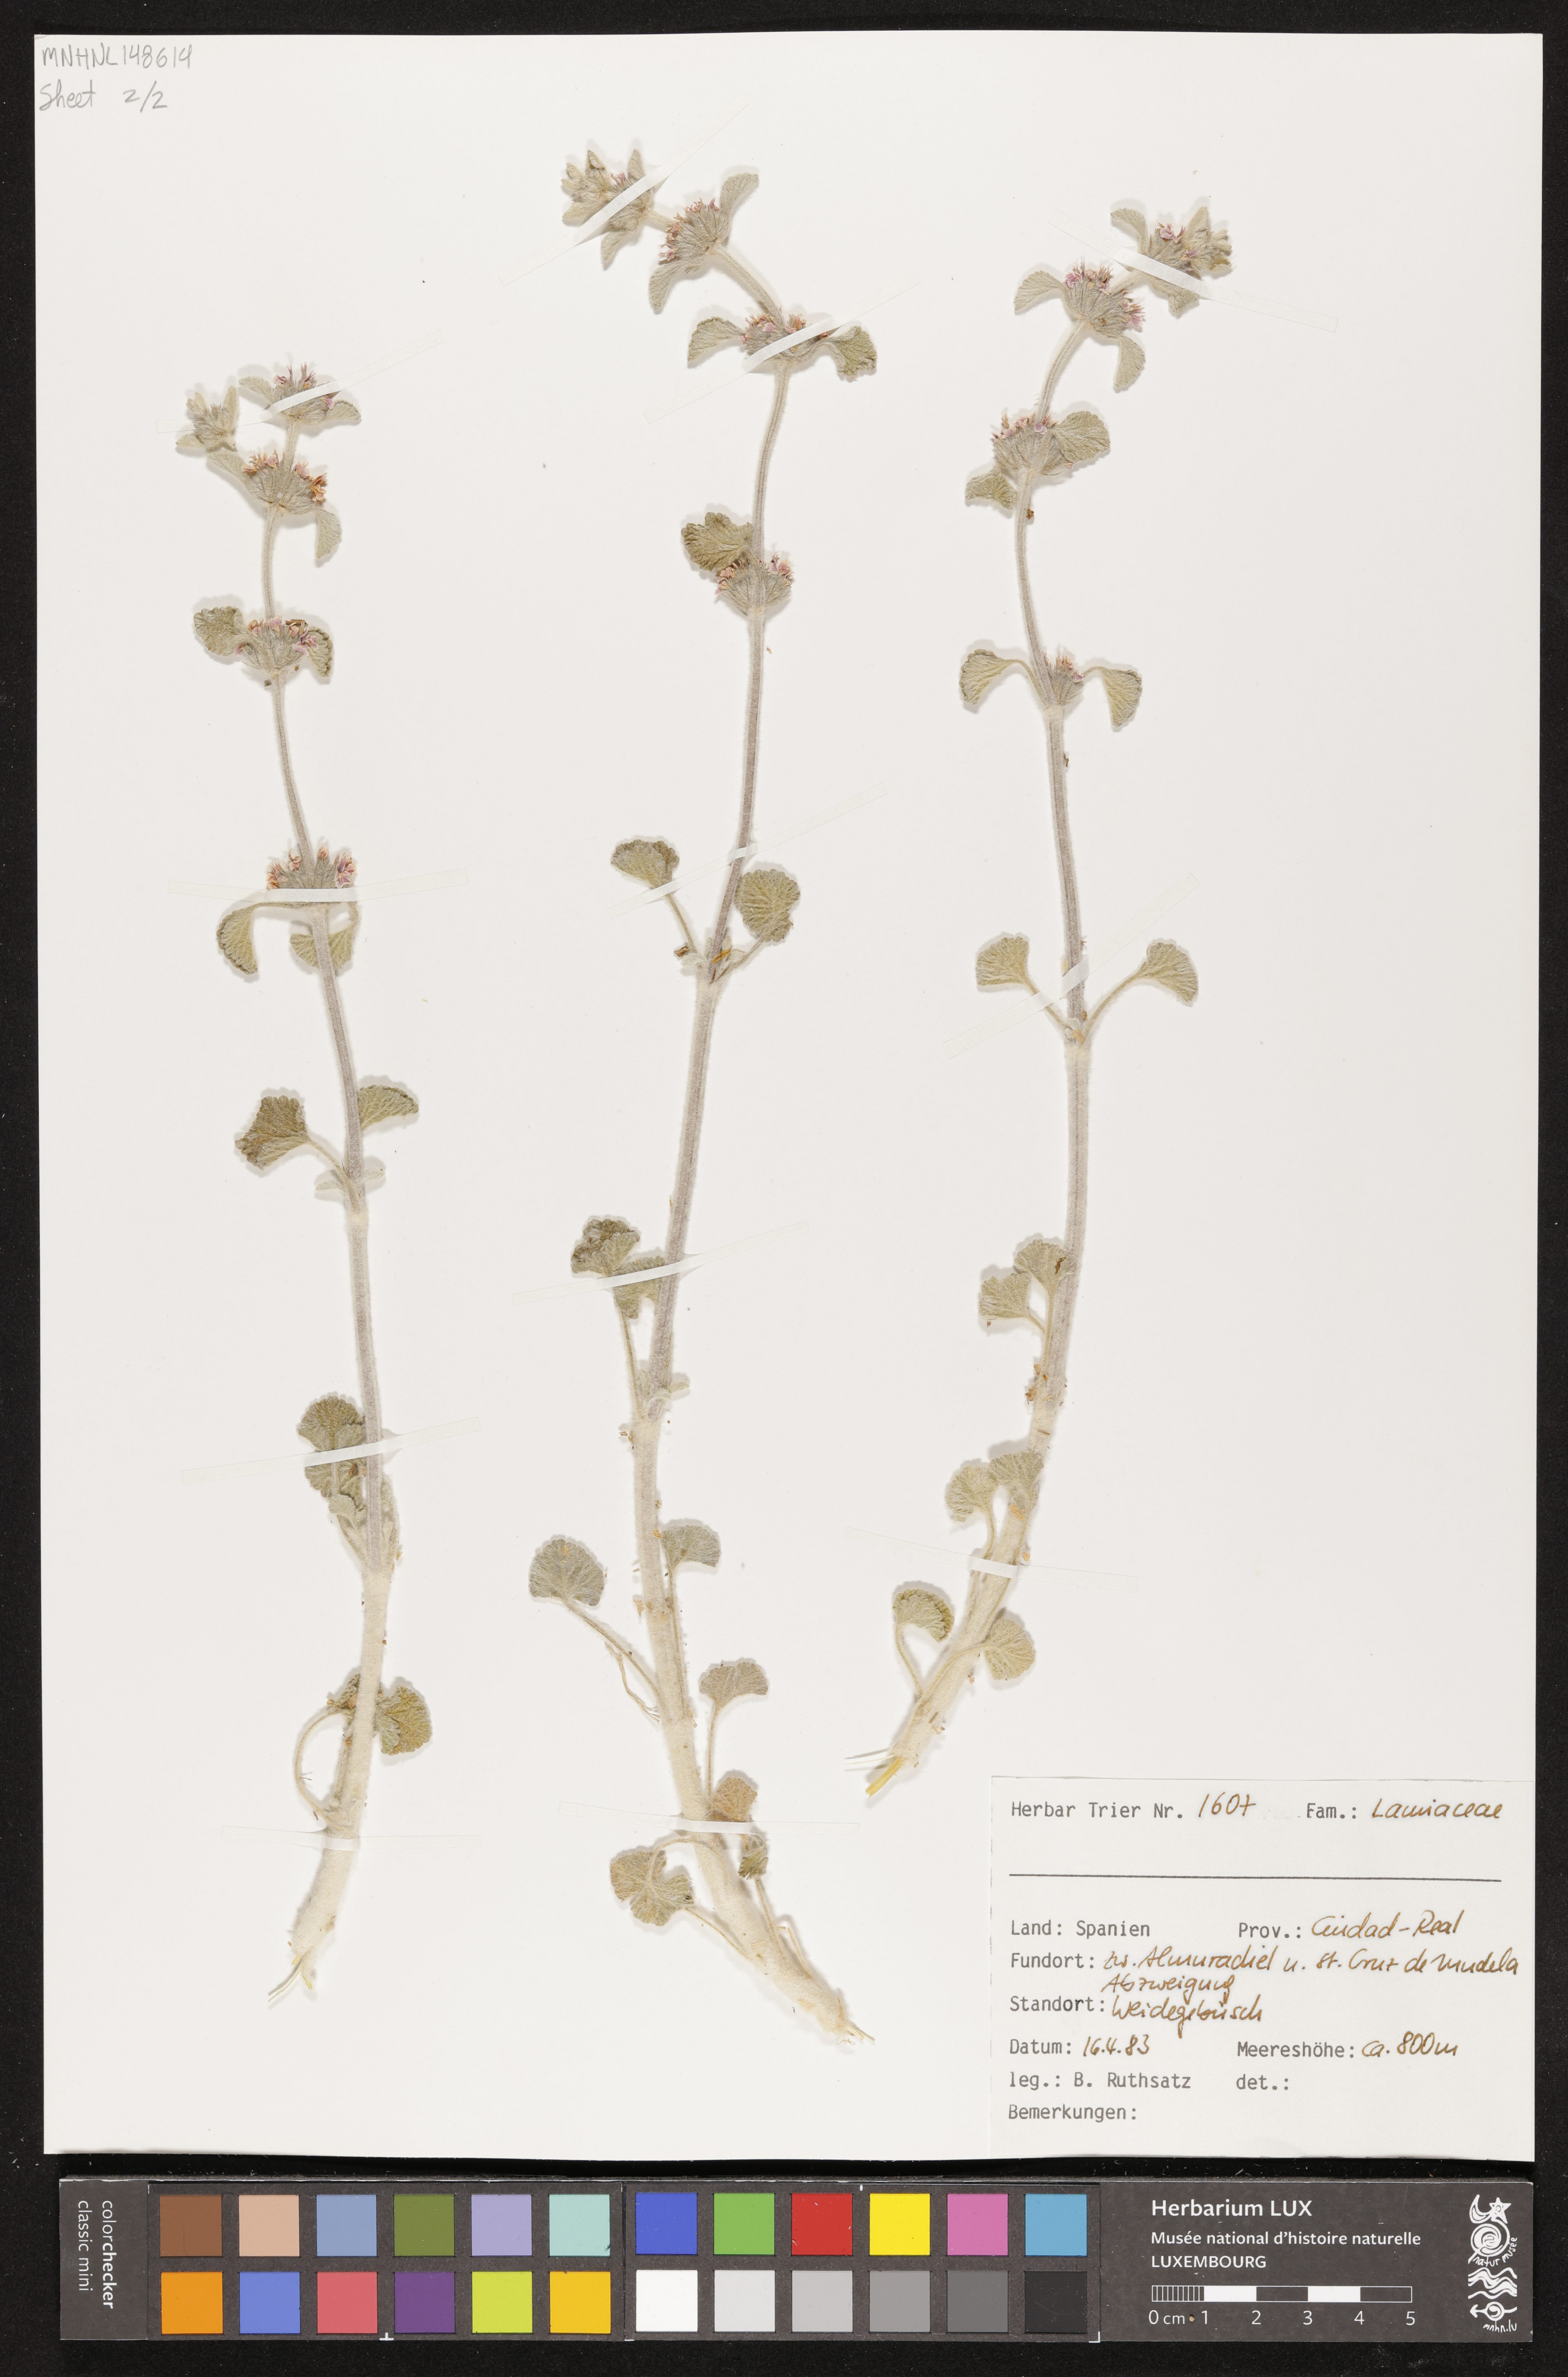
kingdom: Plantae
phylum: Tracheophyta
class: Magnoliopsida
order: Lamiales
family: Lamiaceae
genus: Marrubium
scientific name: Marrubium supinum
